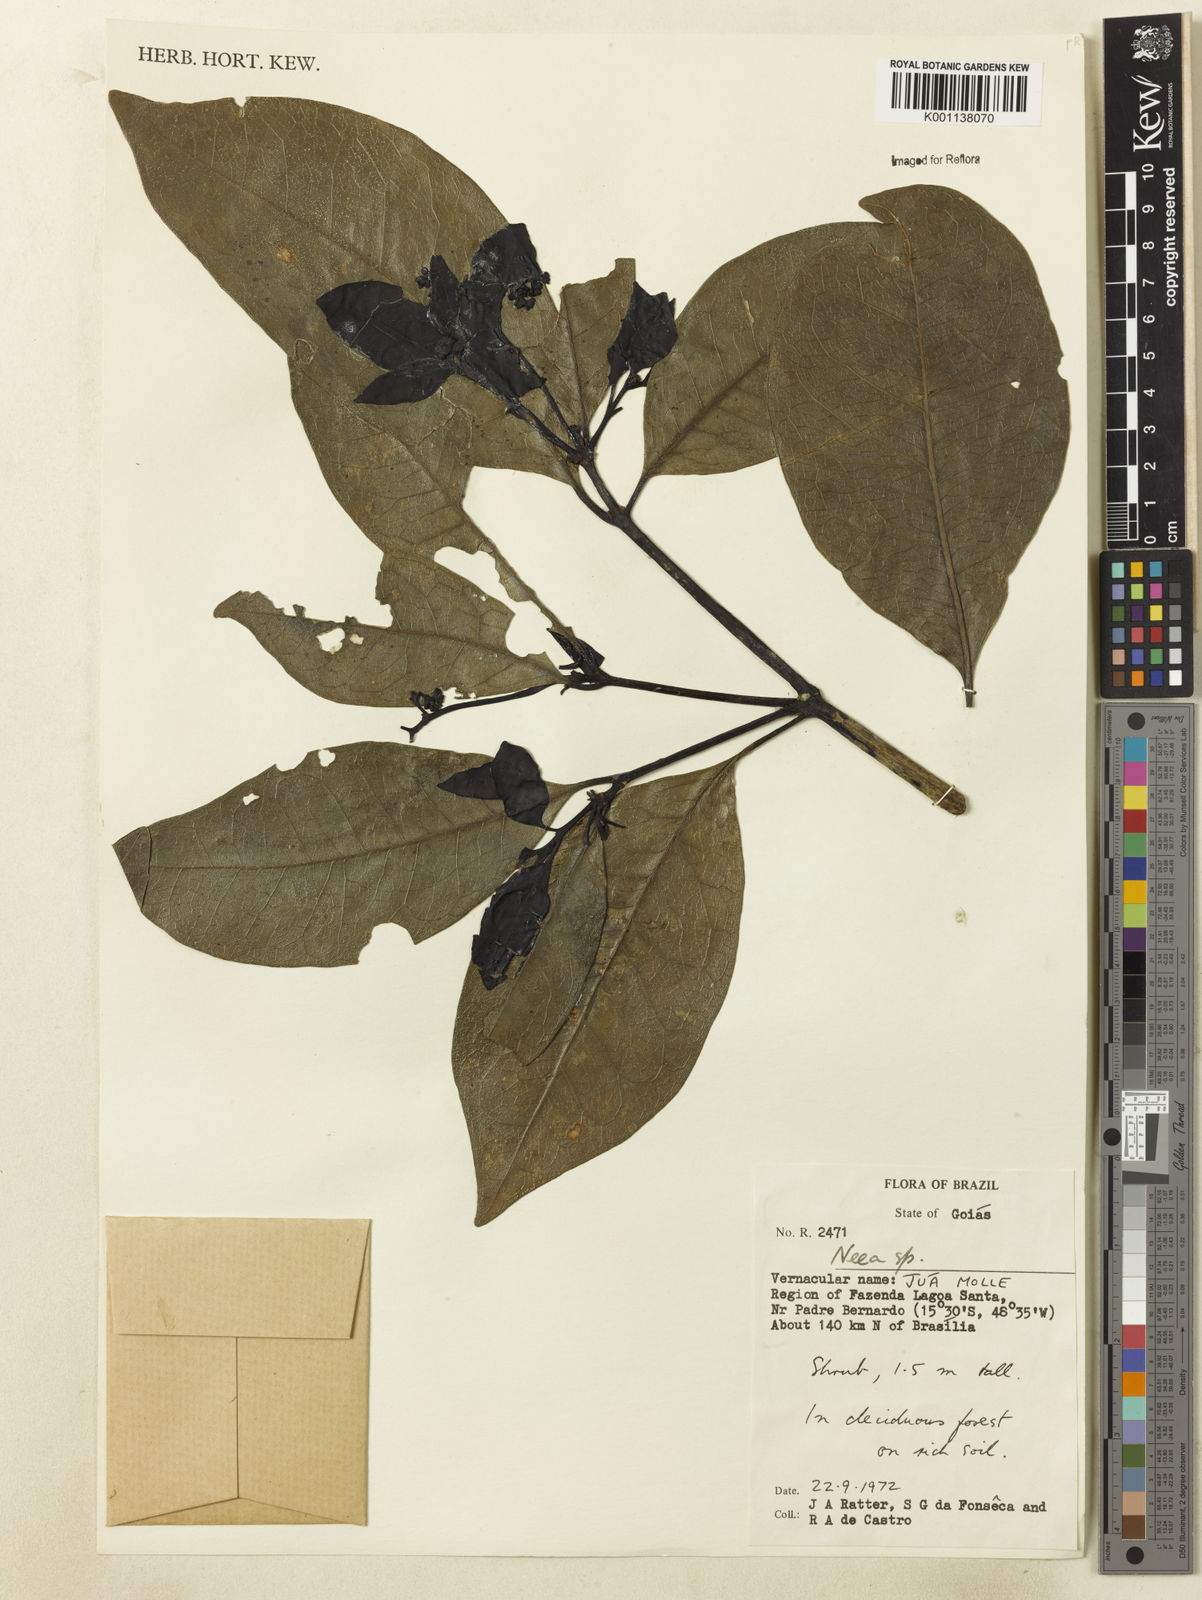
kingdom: Plantae
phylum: Tracheophyta
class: Magnoliopsida
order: Caryophyllales
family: Nyctaginaceae
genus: Neea
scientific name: Neea
